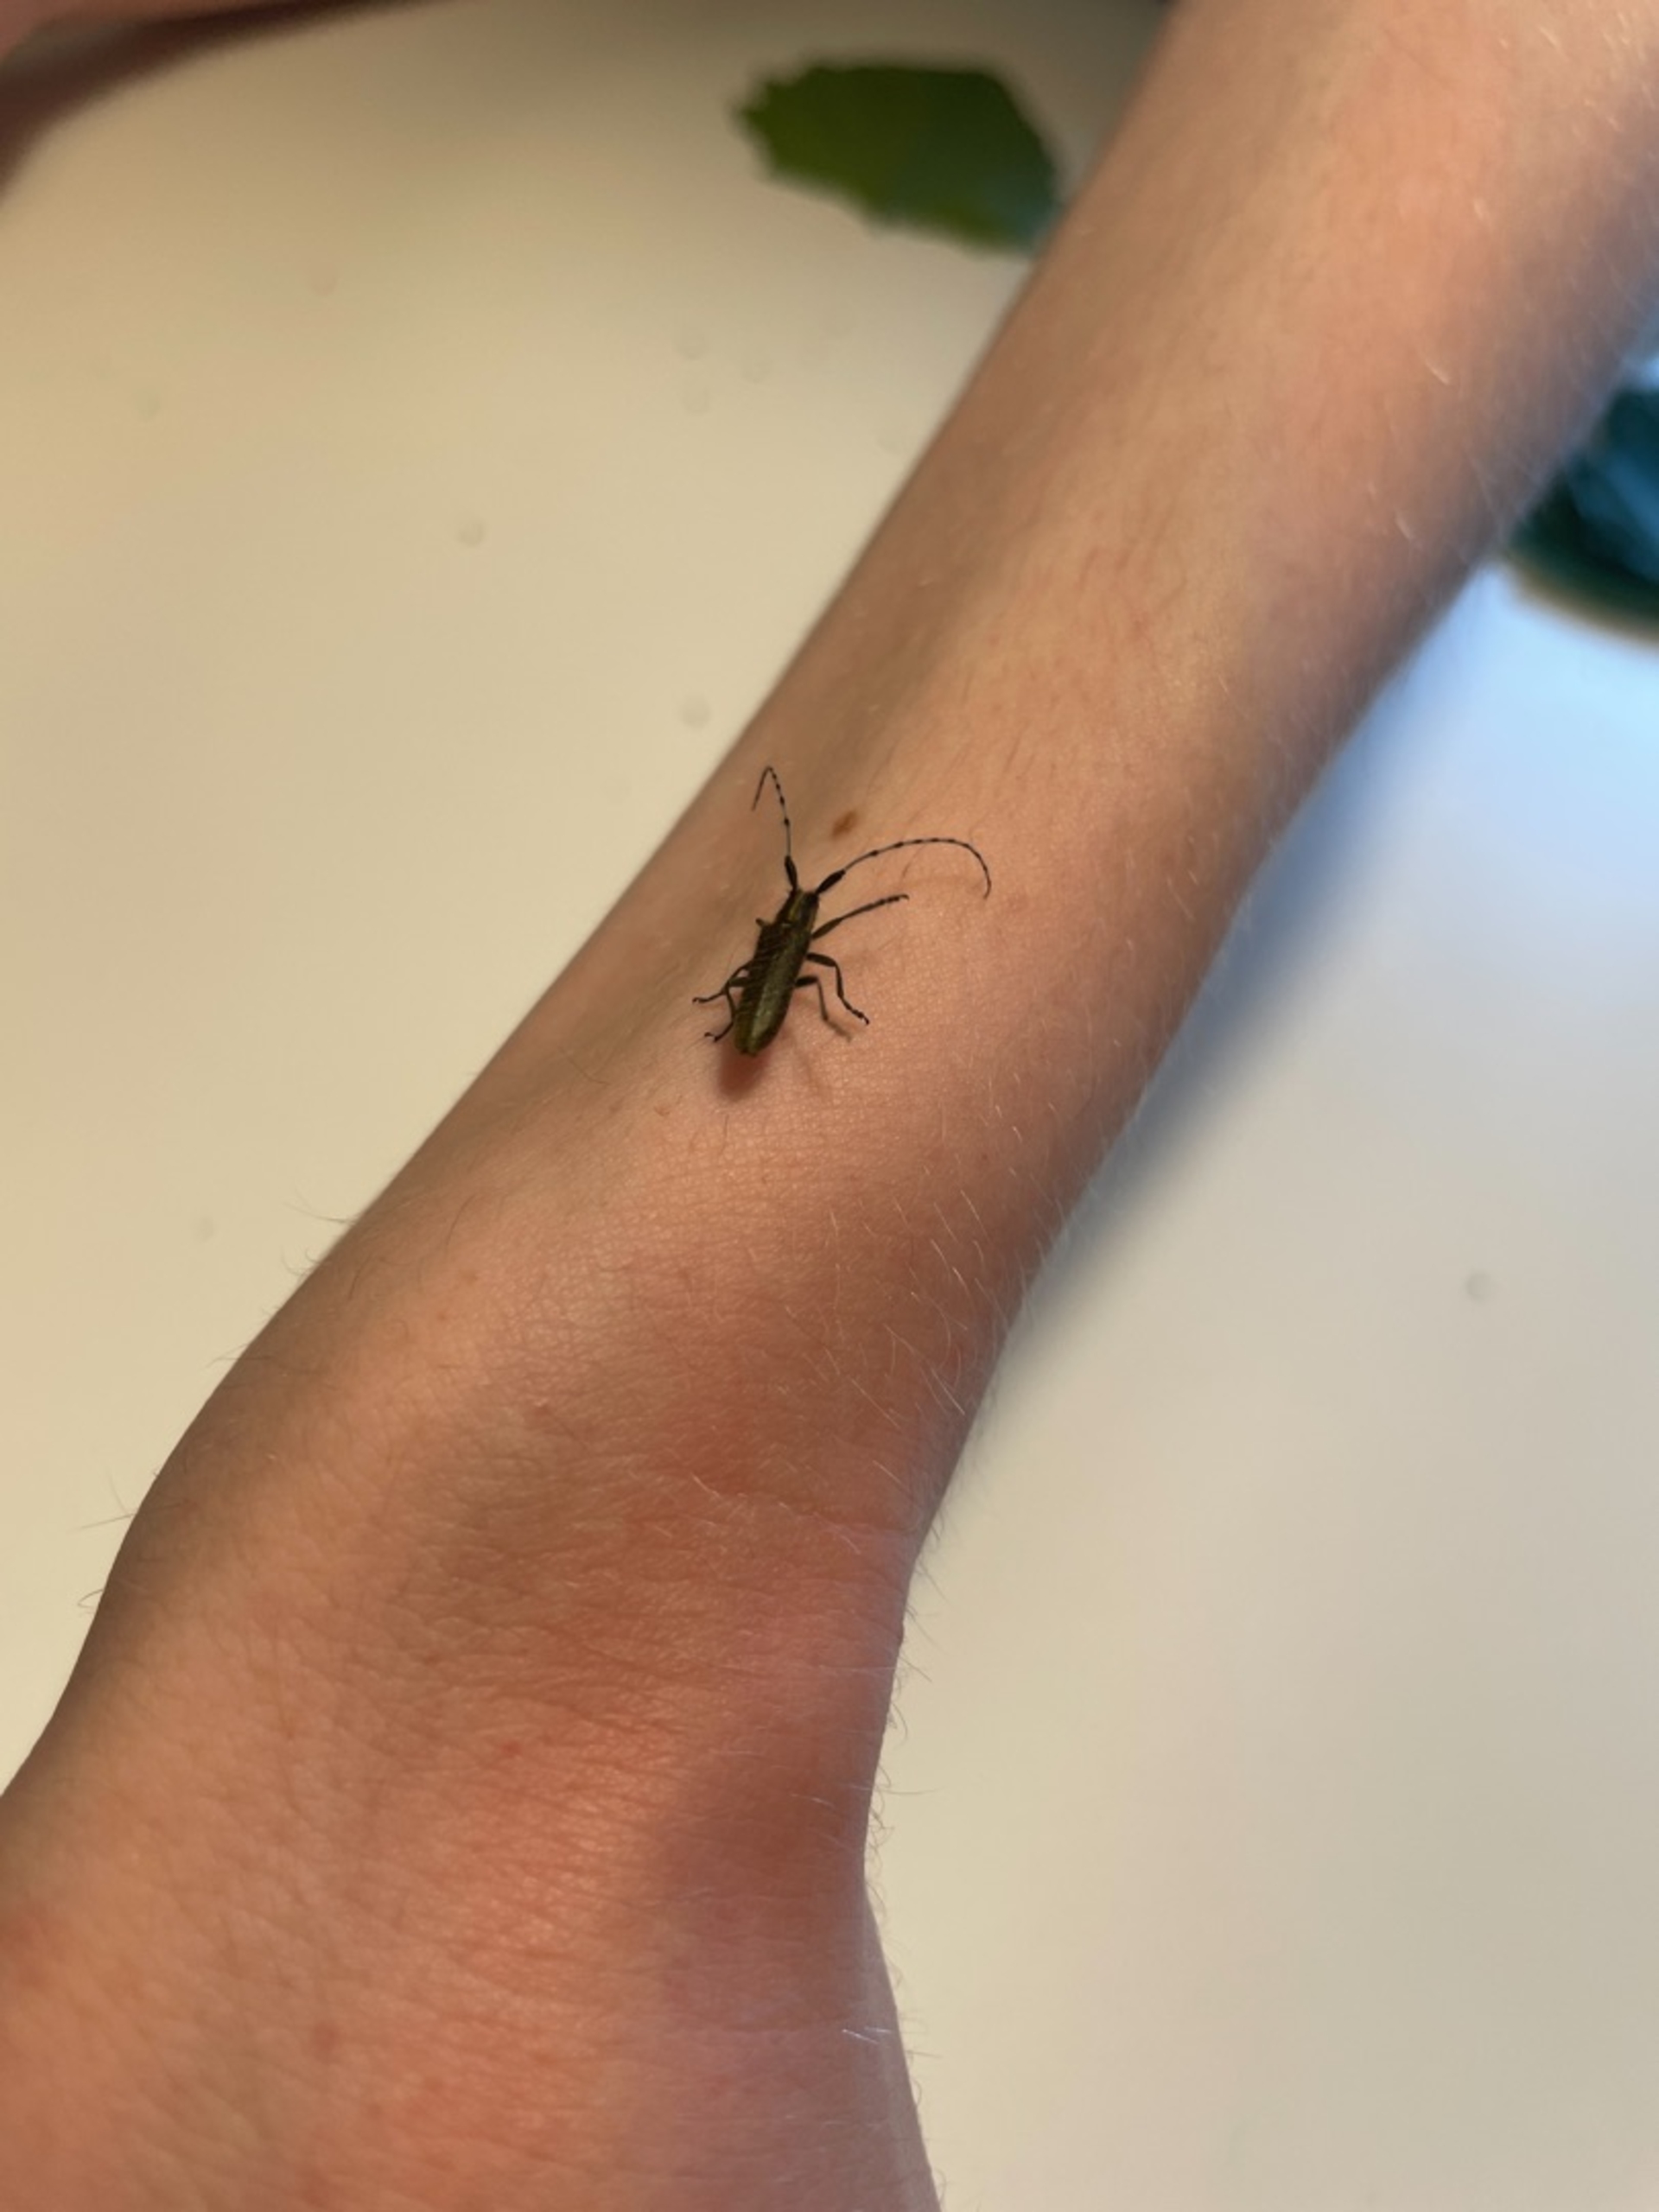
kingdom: Animalia
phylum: Arthropoda
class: Insecta
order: Coleoptera
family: Cerambycidae
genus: Agapanthia
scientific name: Agapanthia villosoviridescens
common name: Tidselbuk
